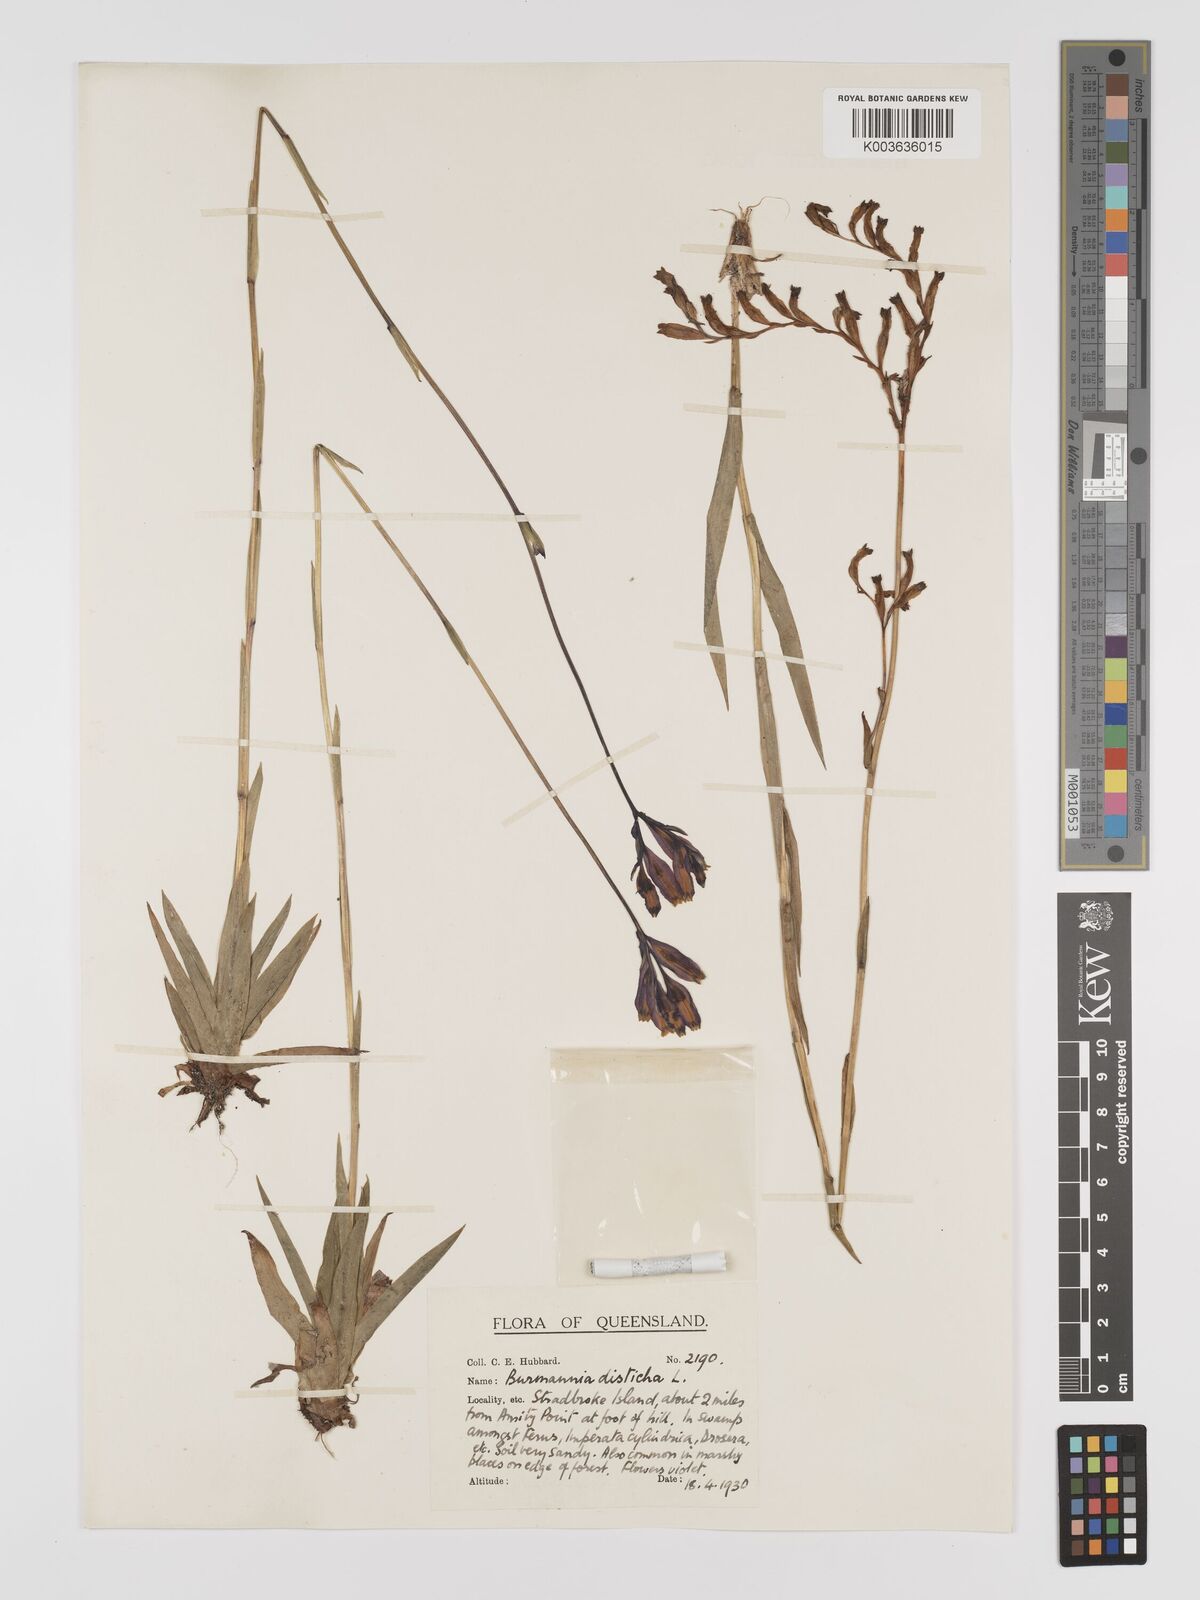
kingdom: Plantae
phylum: Tracheophyta
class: Liliopsida
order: Dioscoreales
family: Burmanniaceae
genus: Burmannia
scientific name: Burmannia disticha
